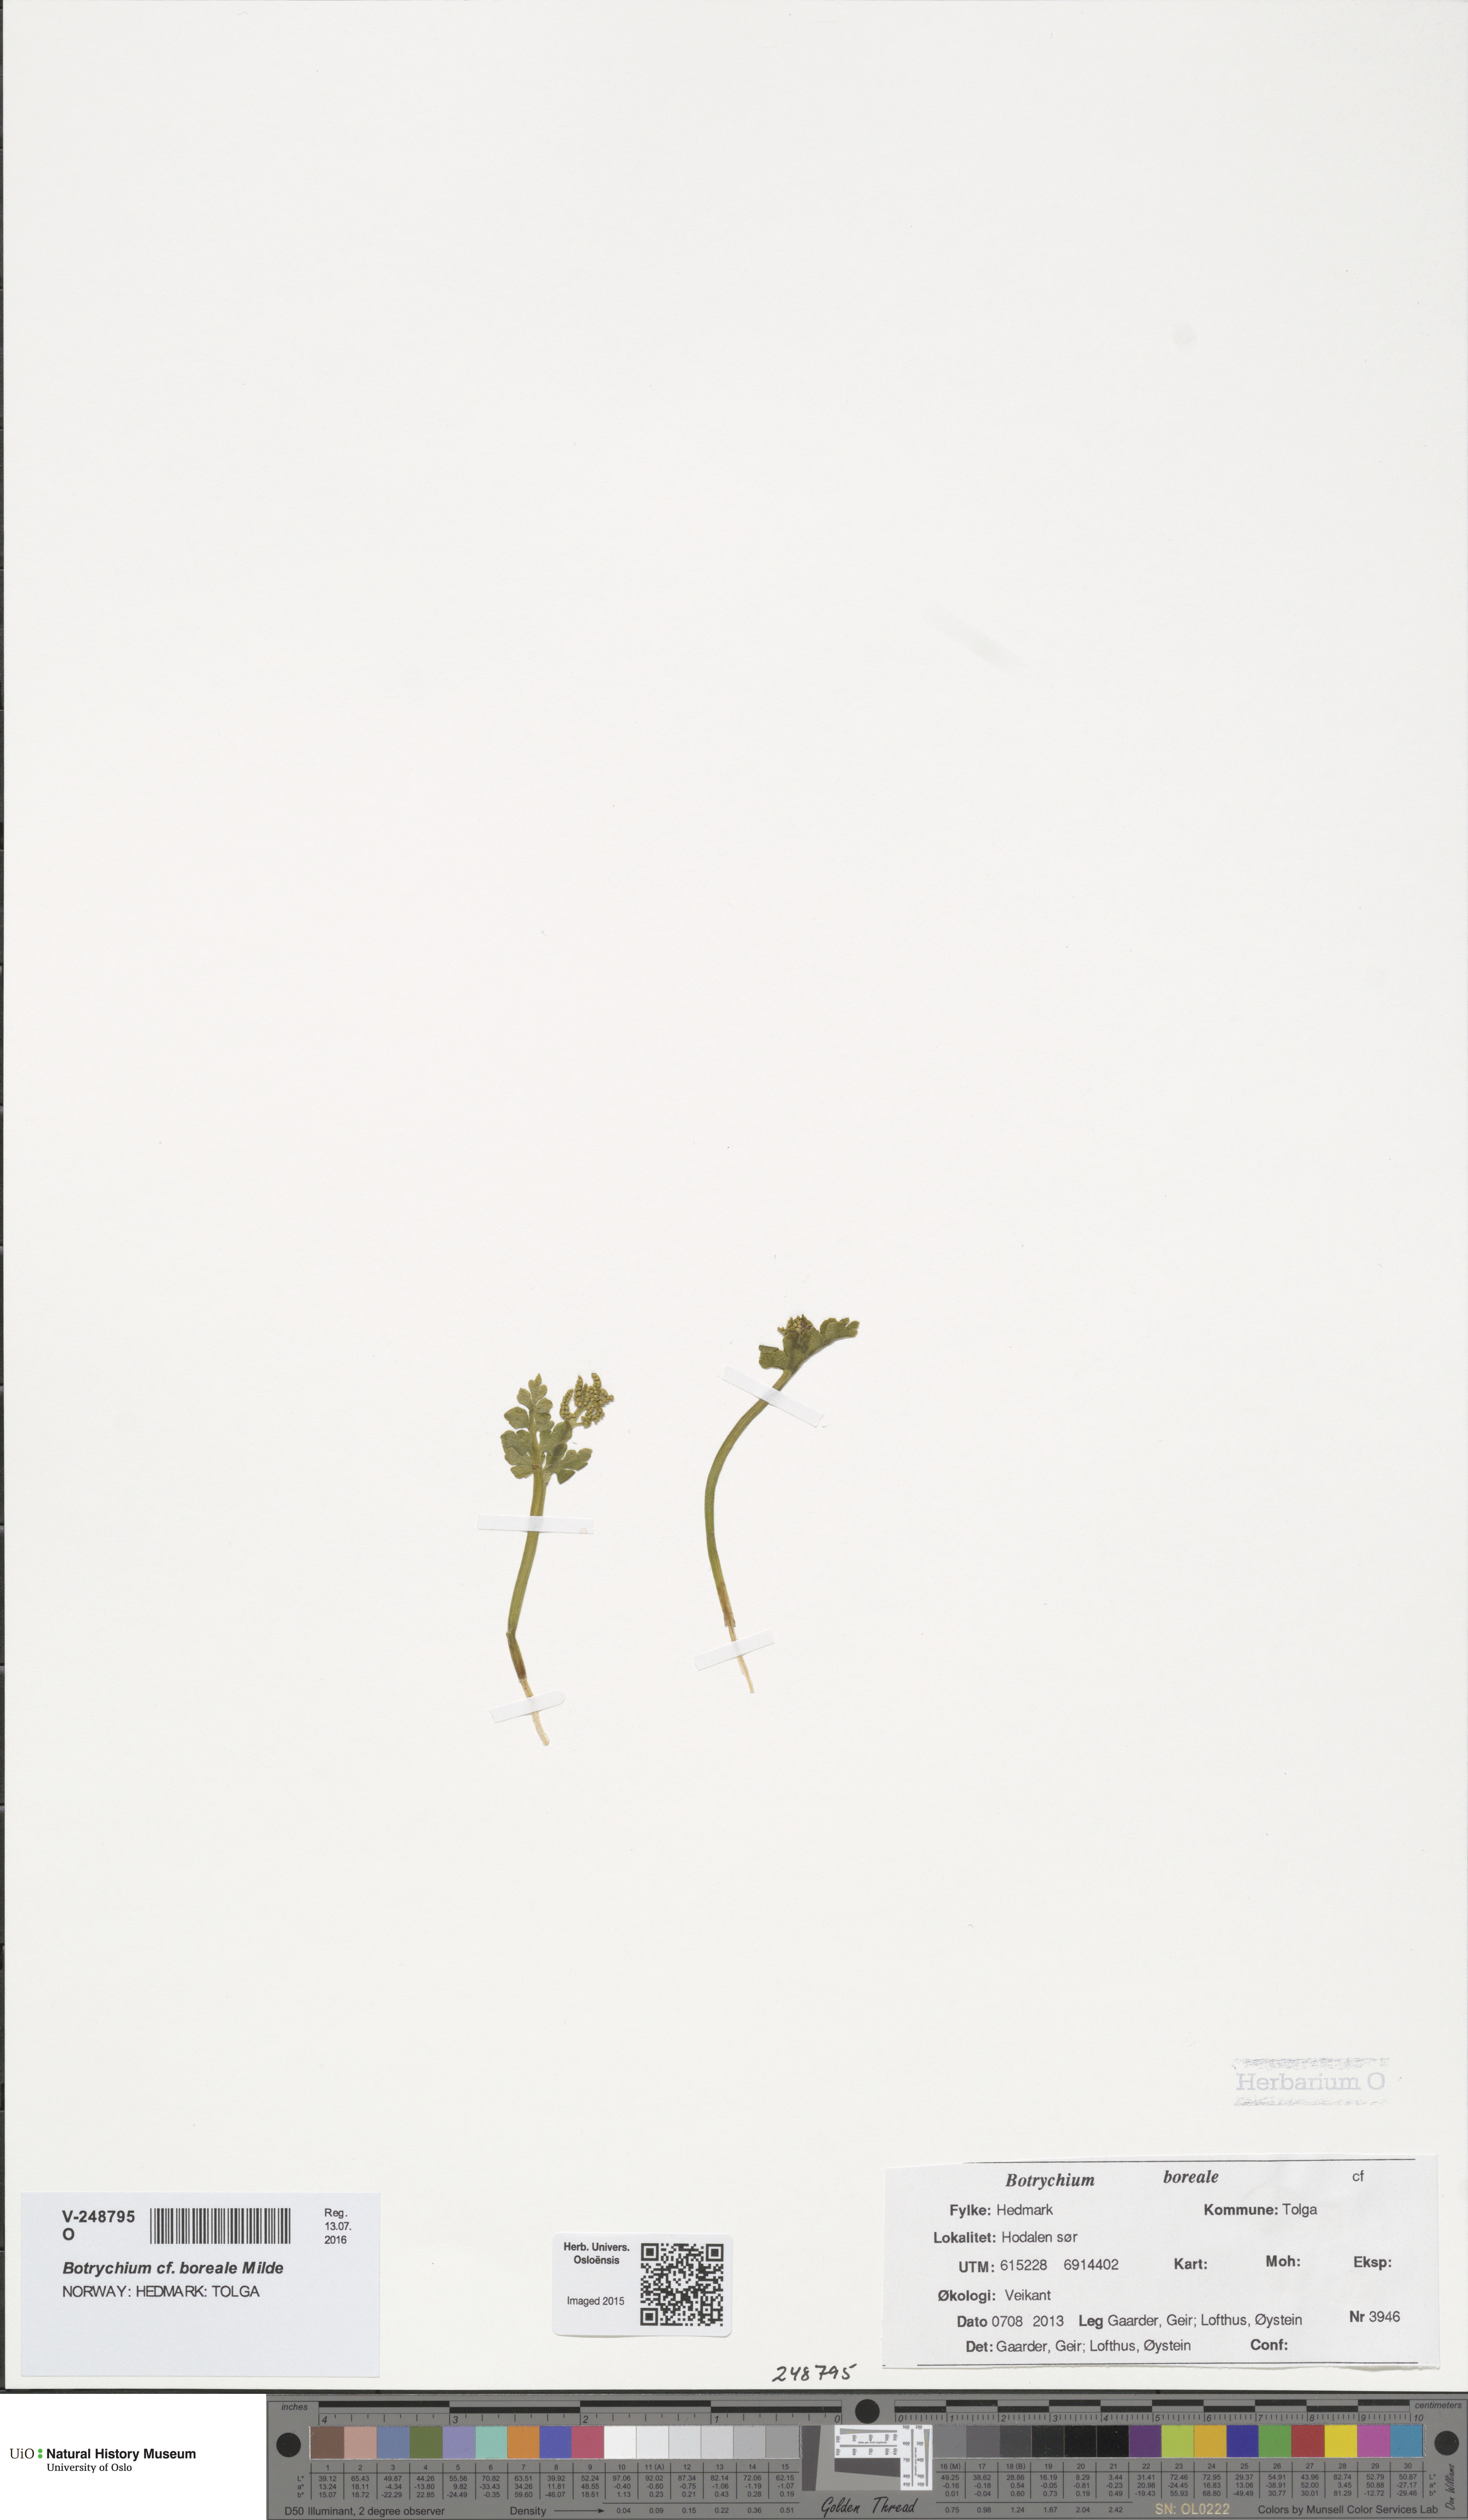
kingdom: Plantae
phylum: Tracheophyta
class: Polypodiopsida
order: Ophioglossales
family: Ophioglossaceae
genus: Botrychium
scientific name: Botrychium boreale
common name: Boreal moonwort
